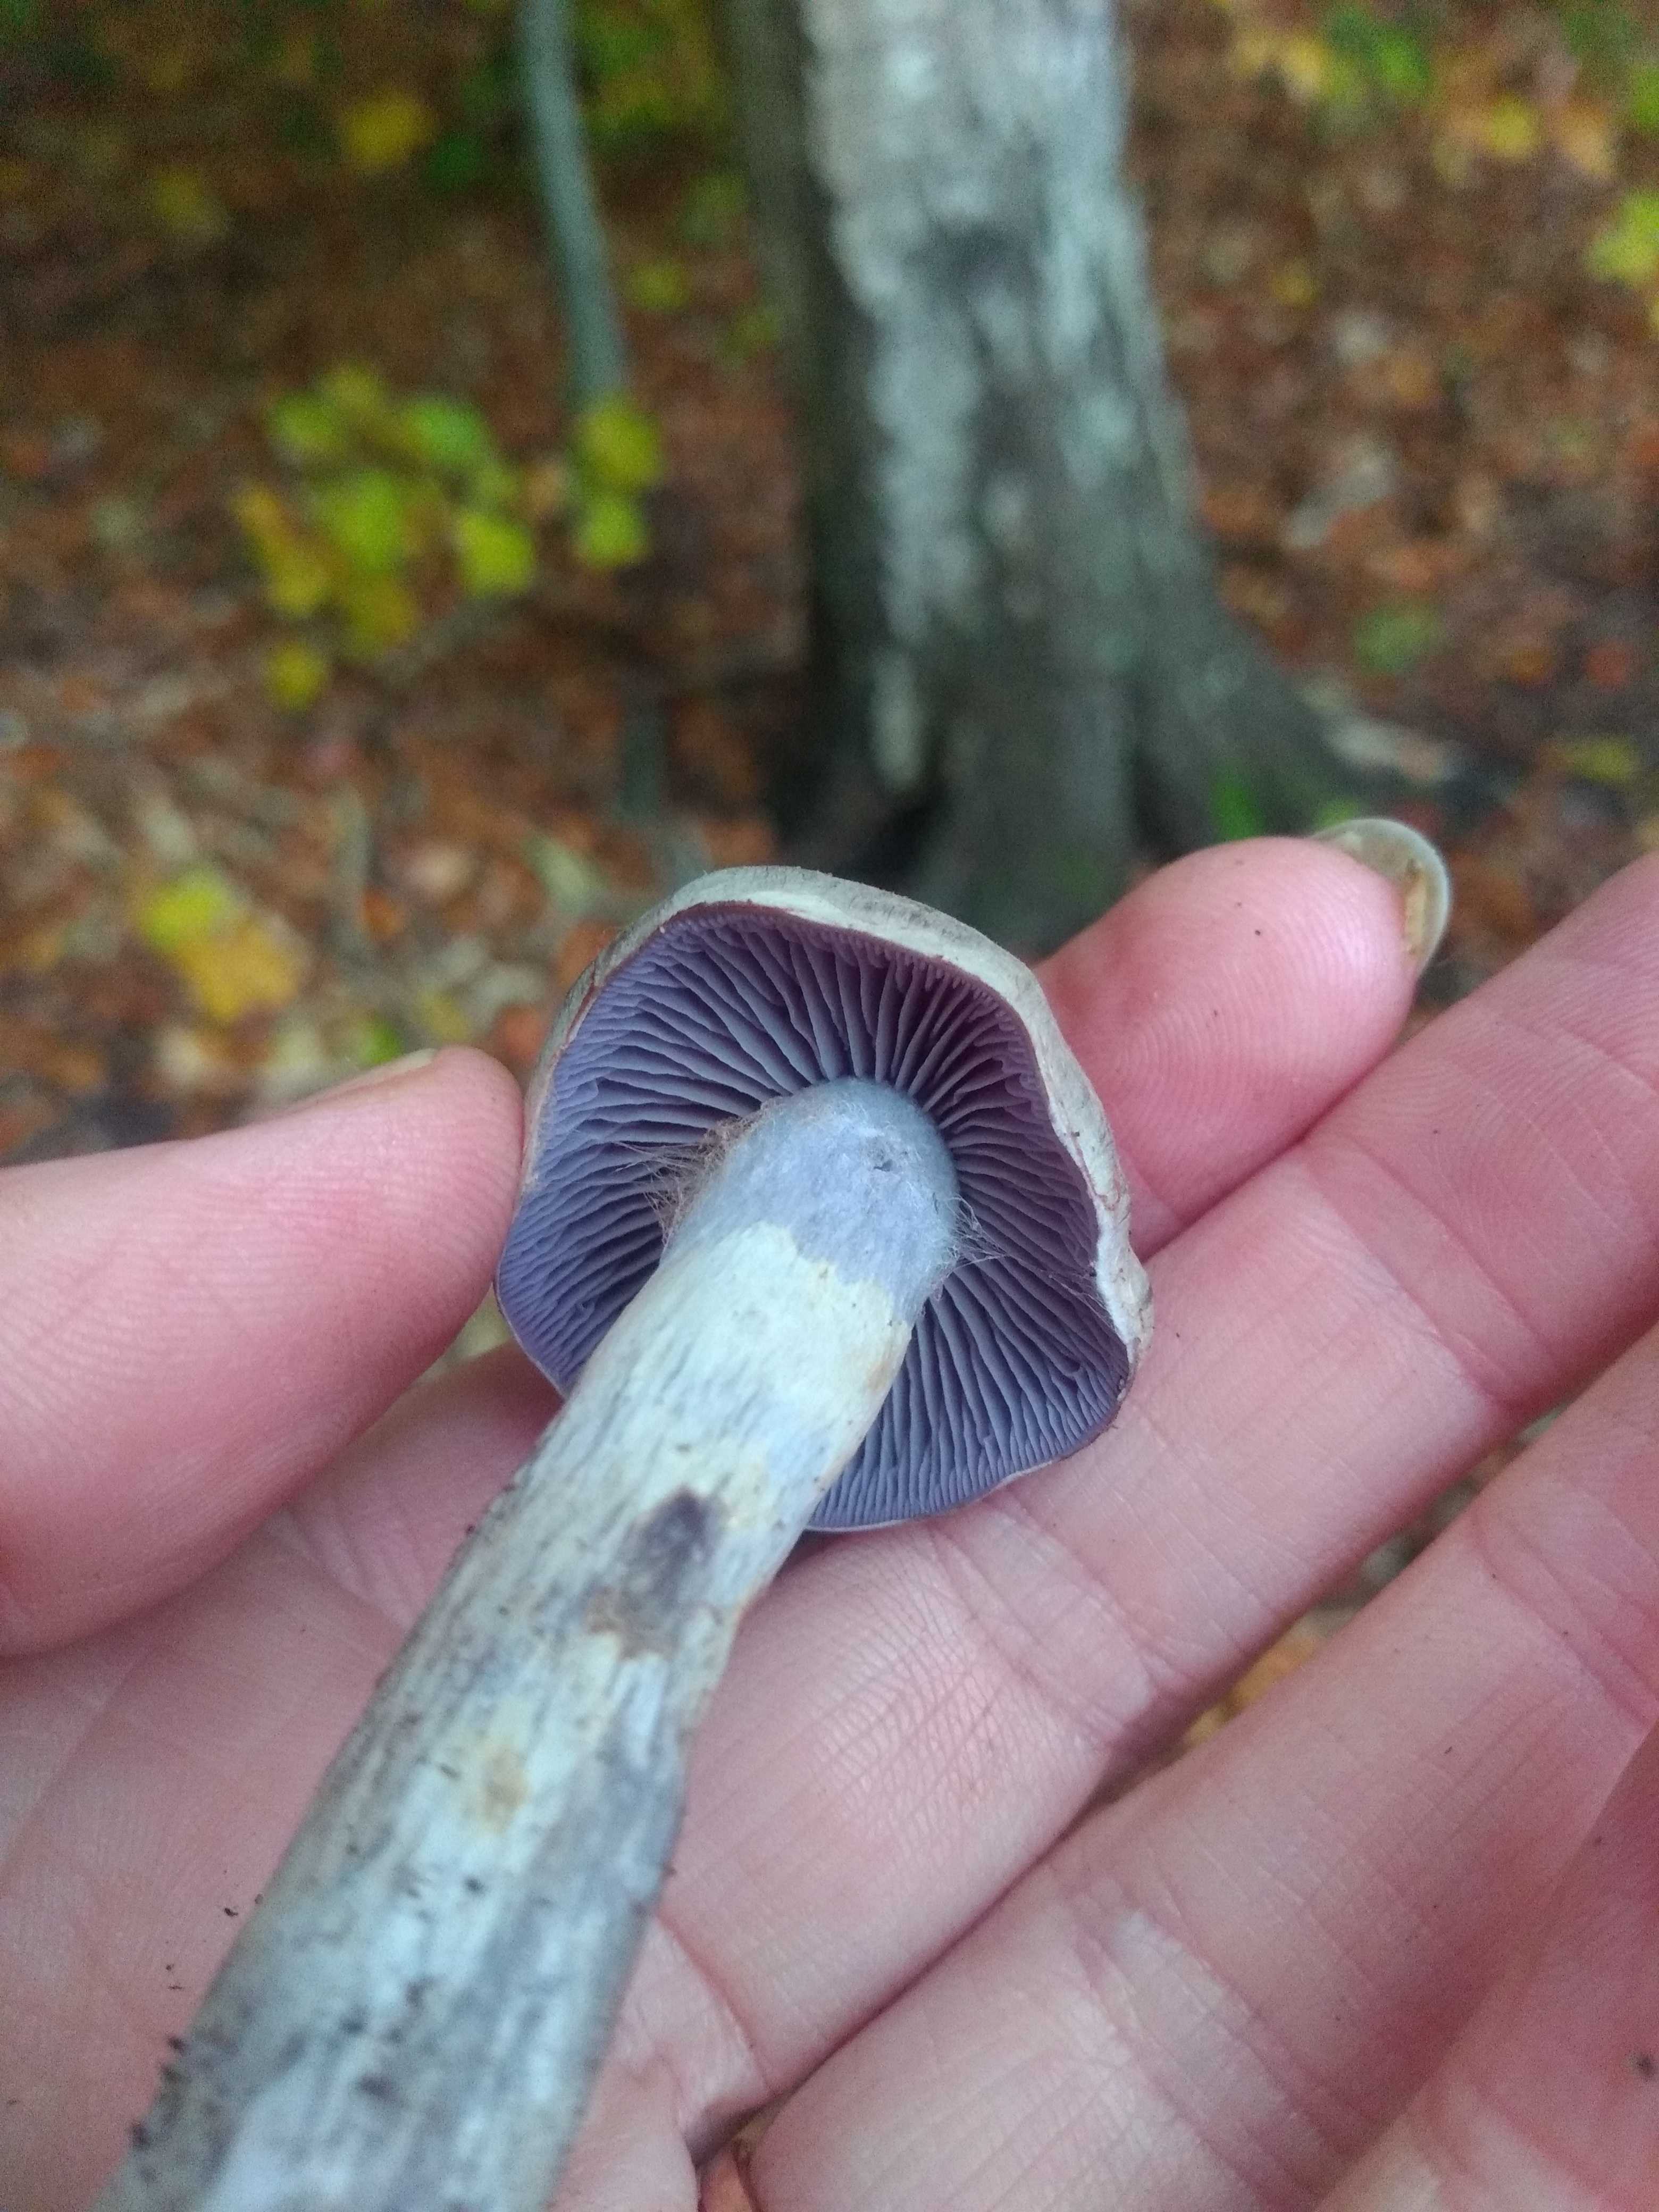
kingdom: Fungi
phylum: Basidiomycota
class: Agaricomycetes
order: Agaricales
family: Cortinariaceae
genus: Cortinarius
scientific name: Cortinarius
